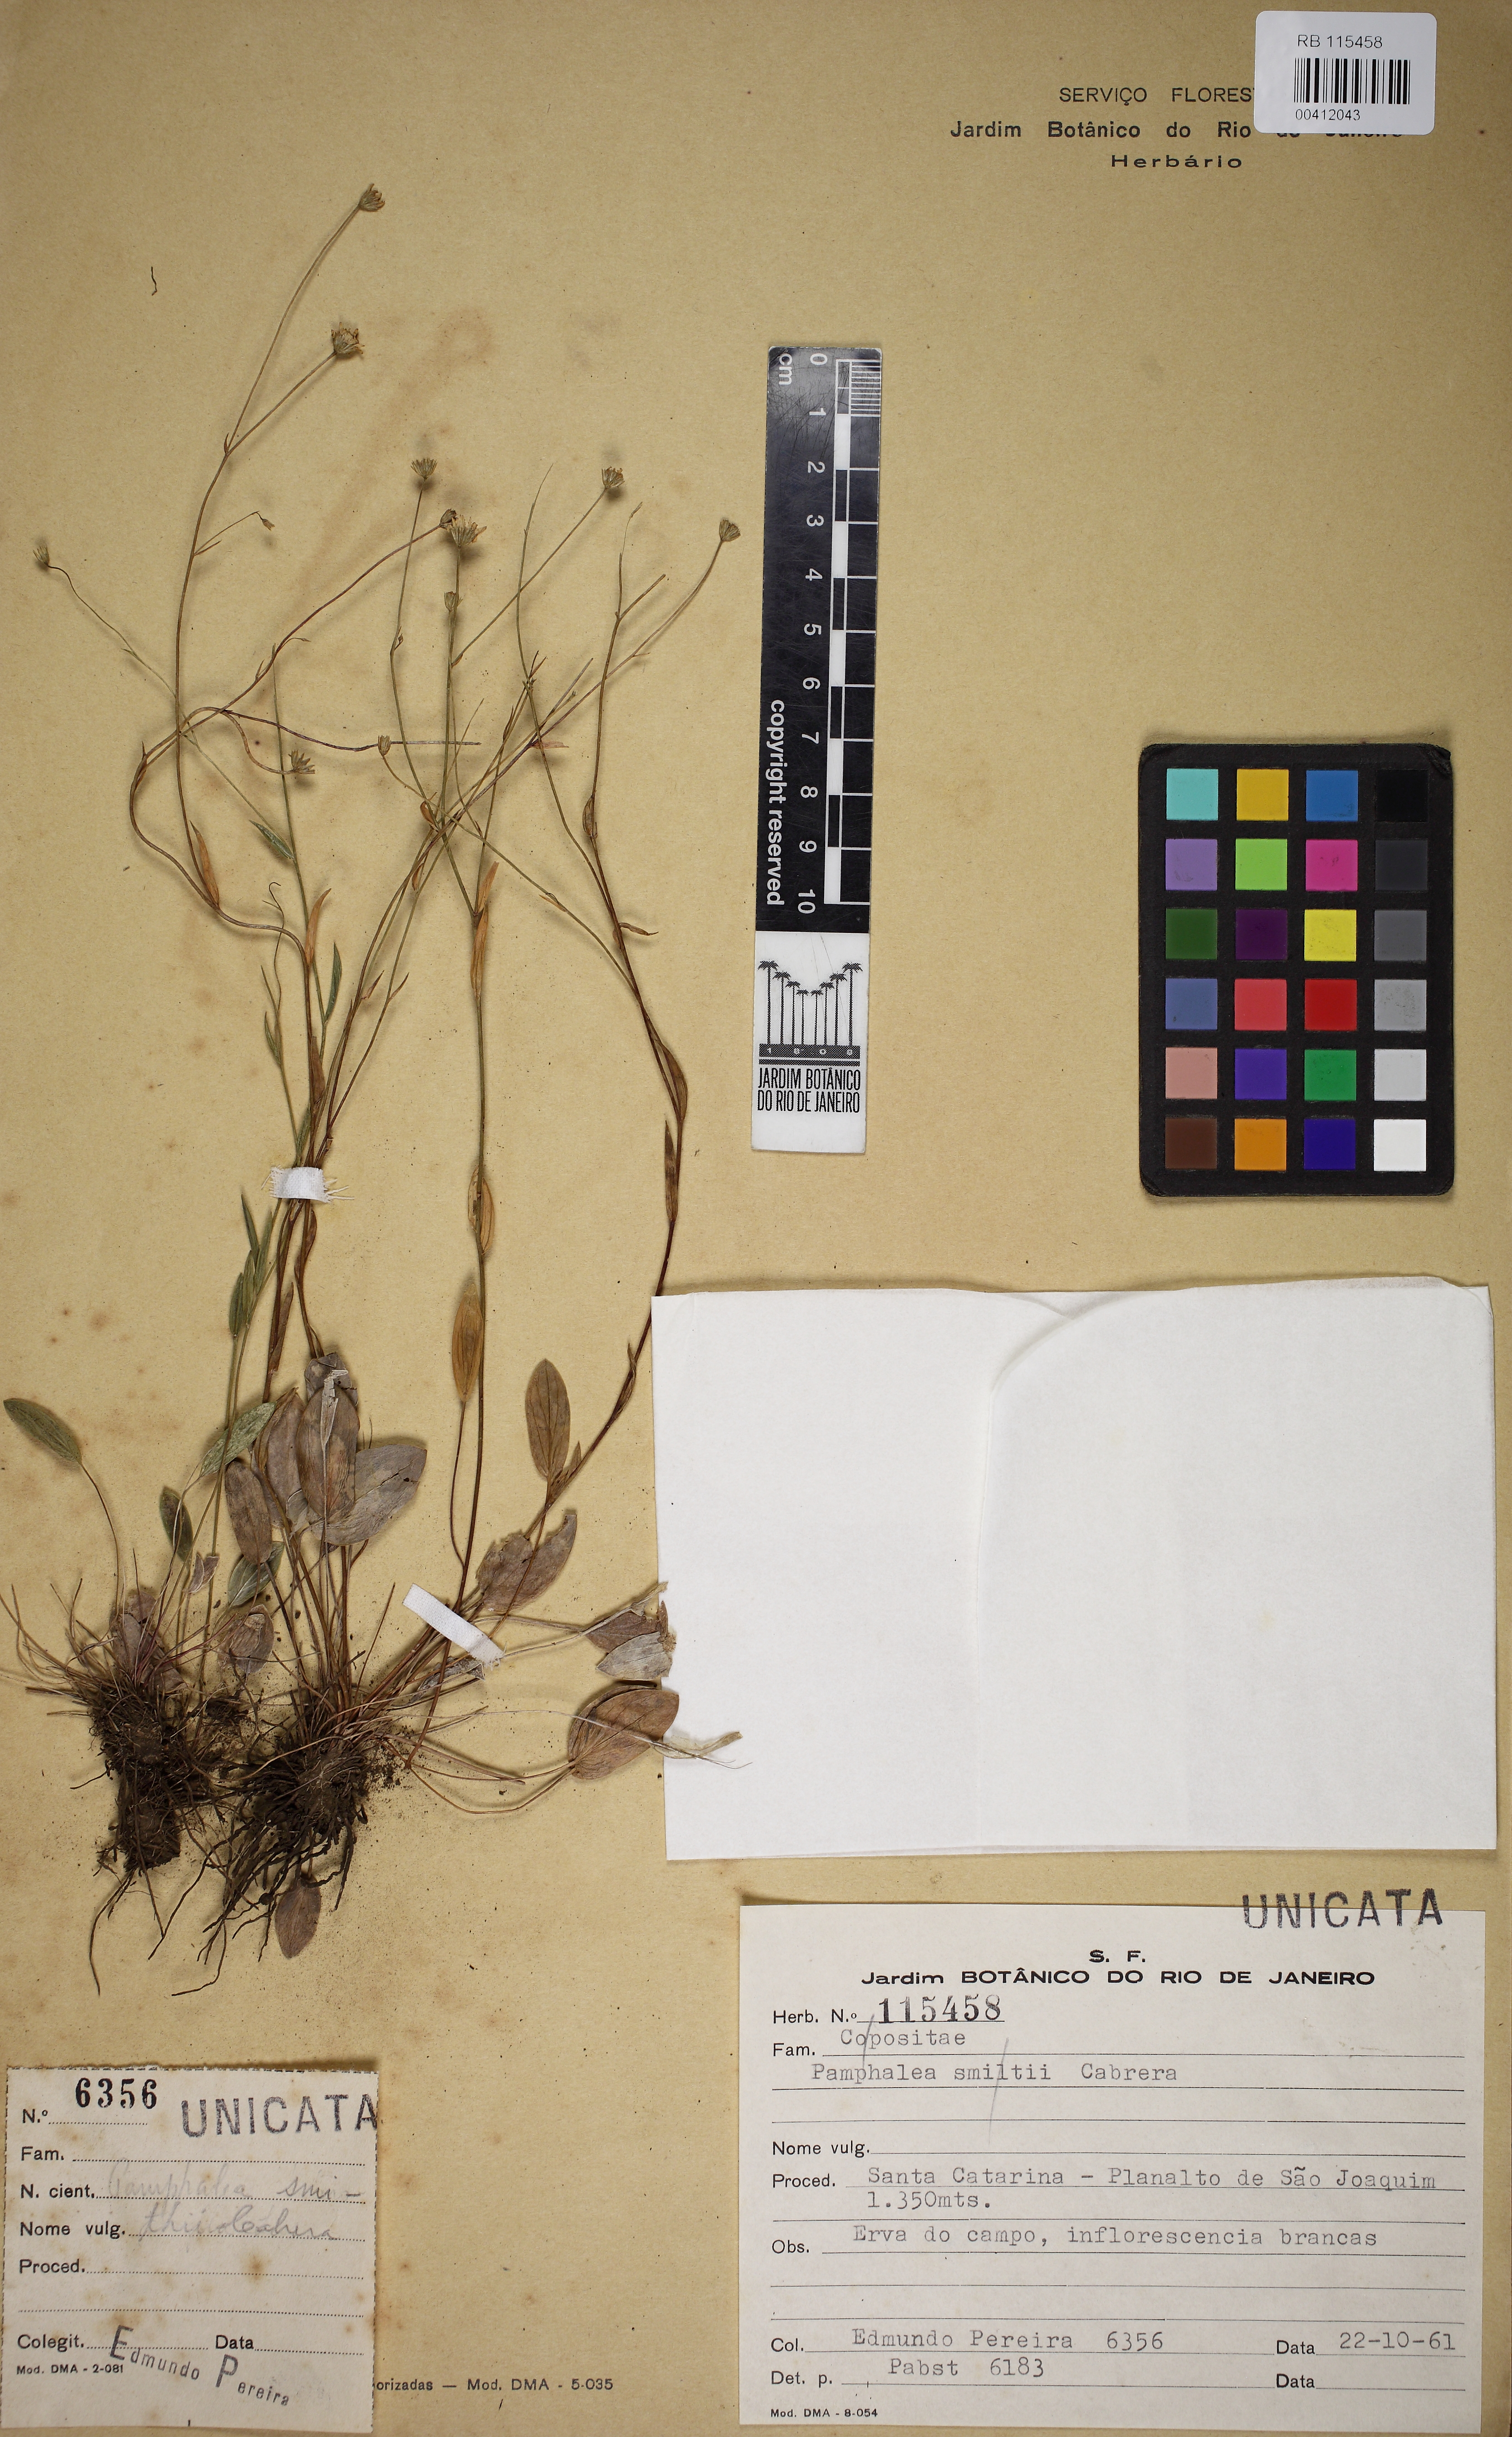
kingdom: Plantae
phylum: Tracheophyta
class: Magnoliopsida
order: Asterales
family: Asteraceae
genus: Panphalea
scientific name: Panphalea smithii
